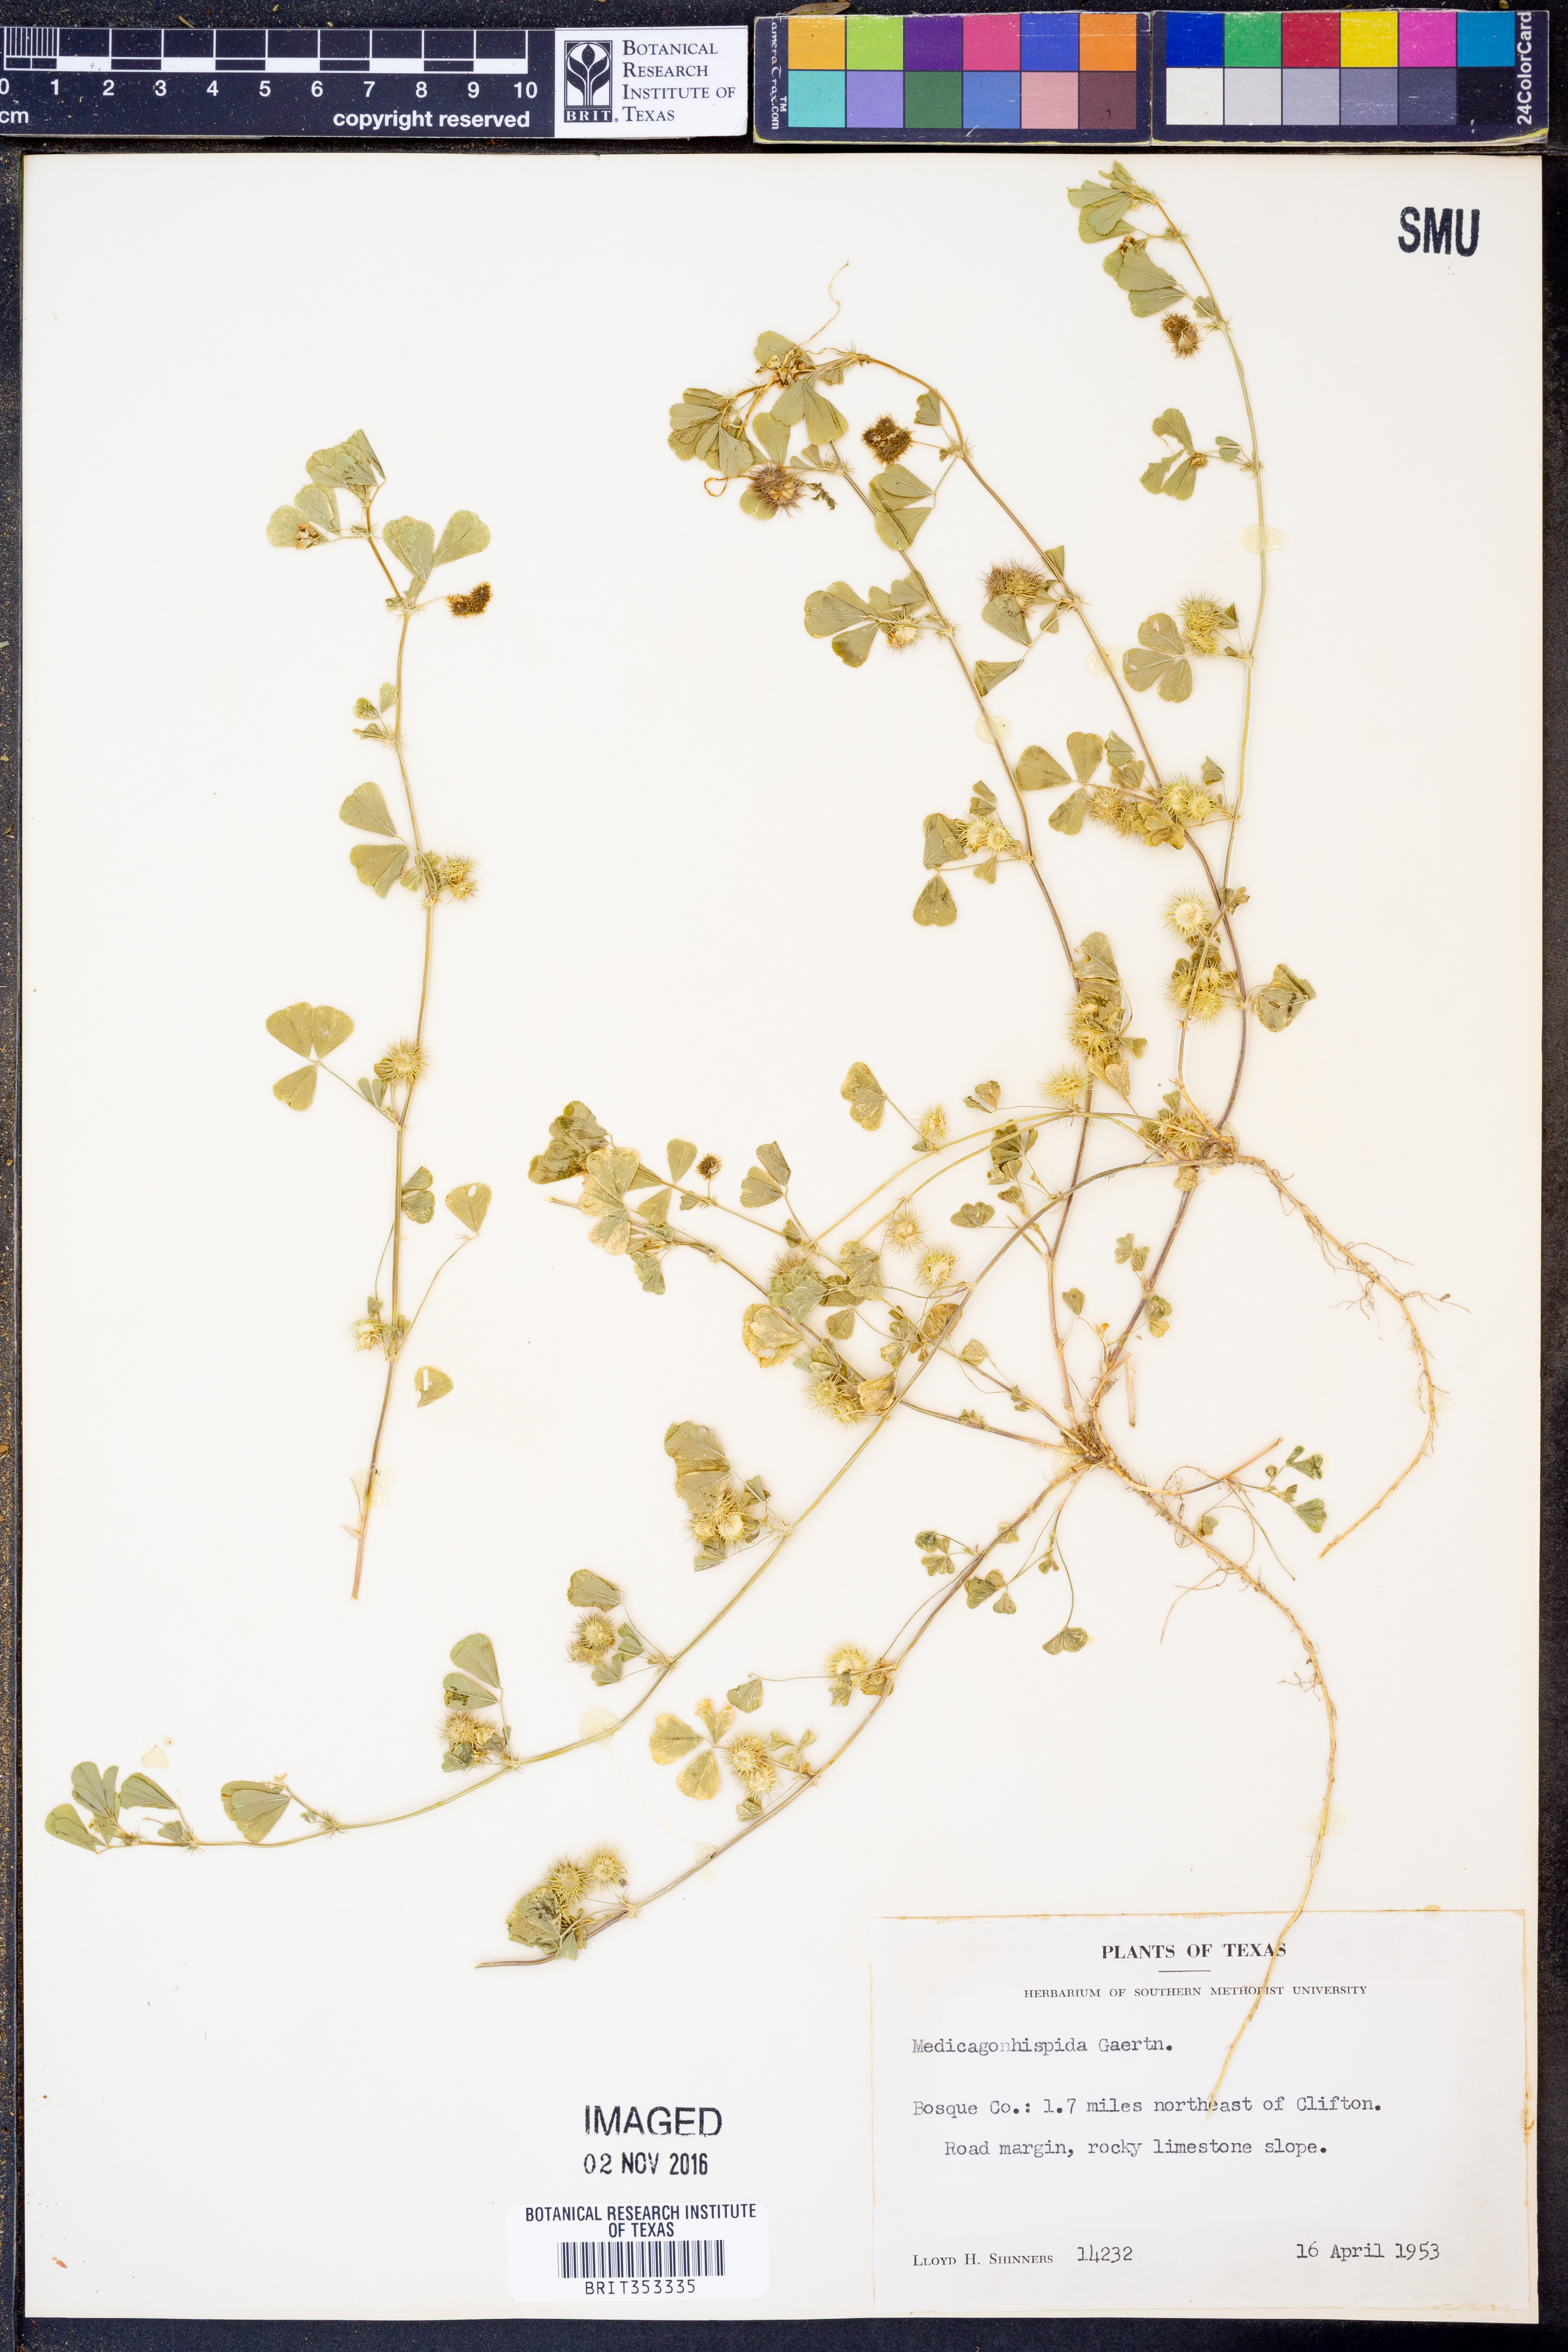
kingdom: Plantae
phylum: Tracheophyta
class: Magnoliopsida
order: Fabales
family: Fabaceae
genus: Medicago
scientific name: Medicago polymorpha
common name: Burclover
